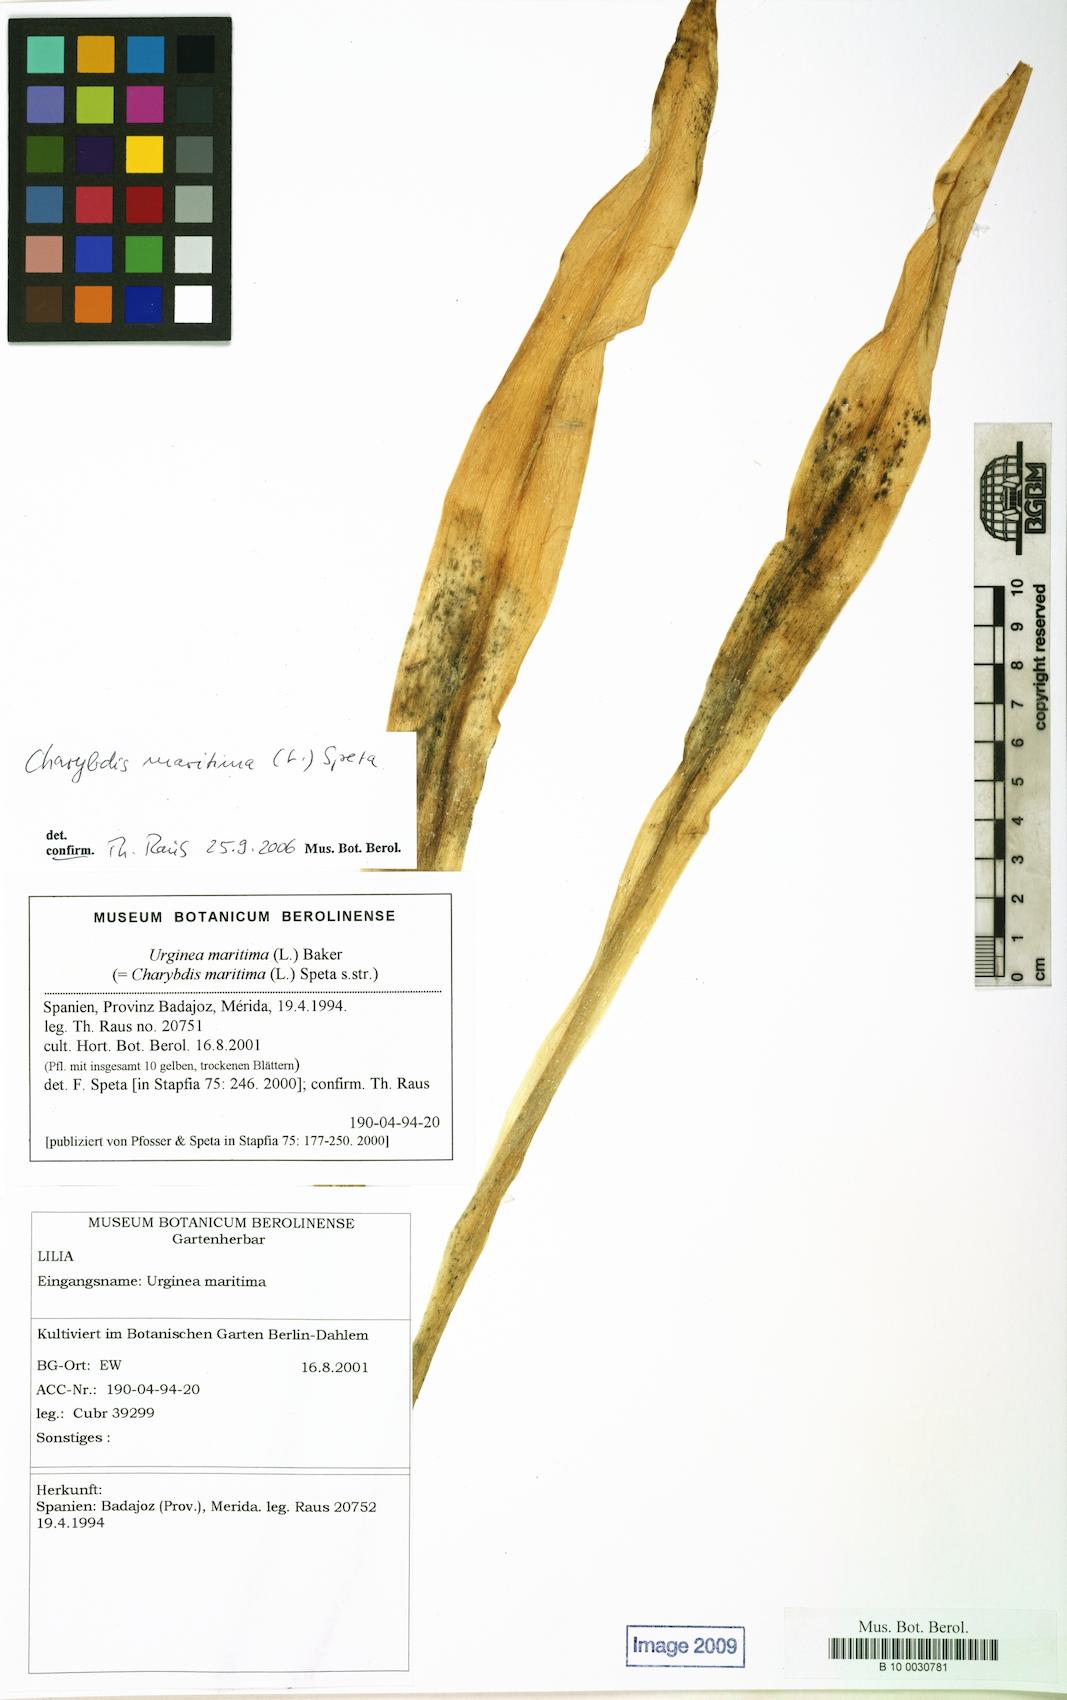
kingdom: Plantae
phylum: Tracheophyta
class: Liliopsida
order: Asparagales
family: Asparagaceae
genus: Drimia
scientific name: Drimia maritima
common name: Maritime squill
